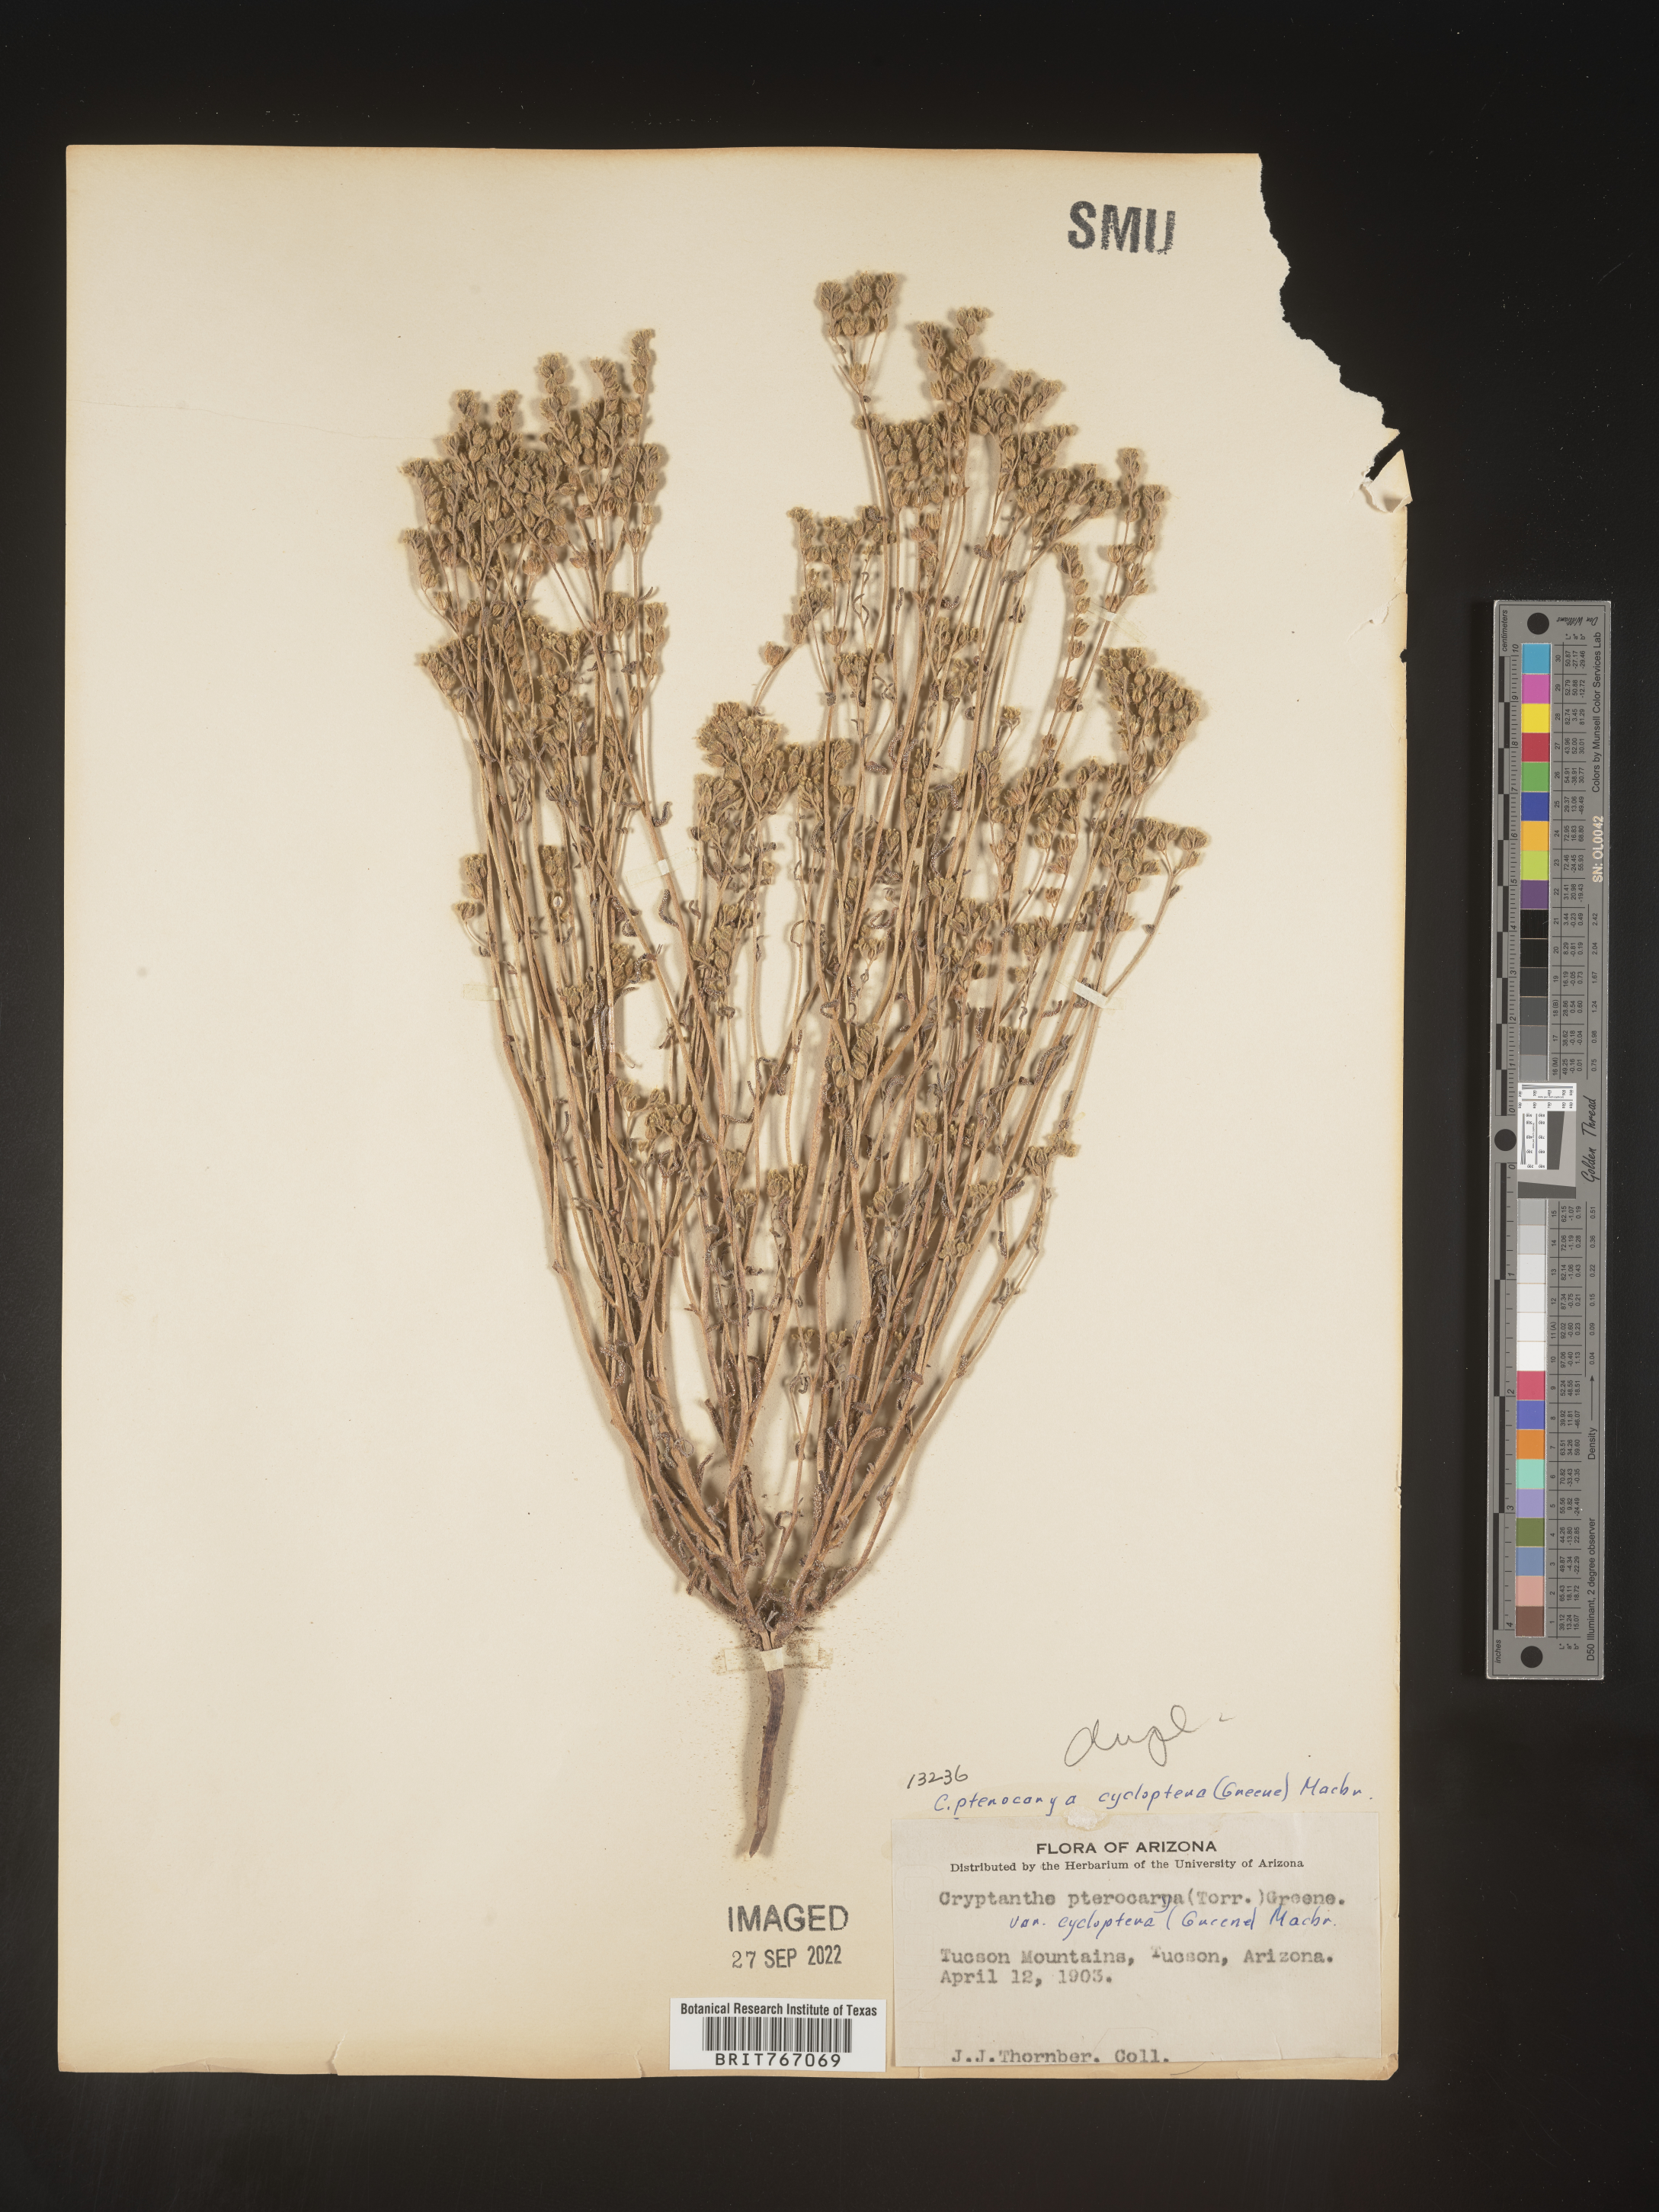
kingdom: Plantae
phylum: Tracheophyta
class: Magnoliopsida
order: Boraginales
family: Boraginaceae
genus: Cryptantha
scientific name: Cryptantha pterocarya
